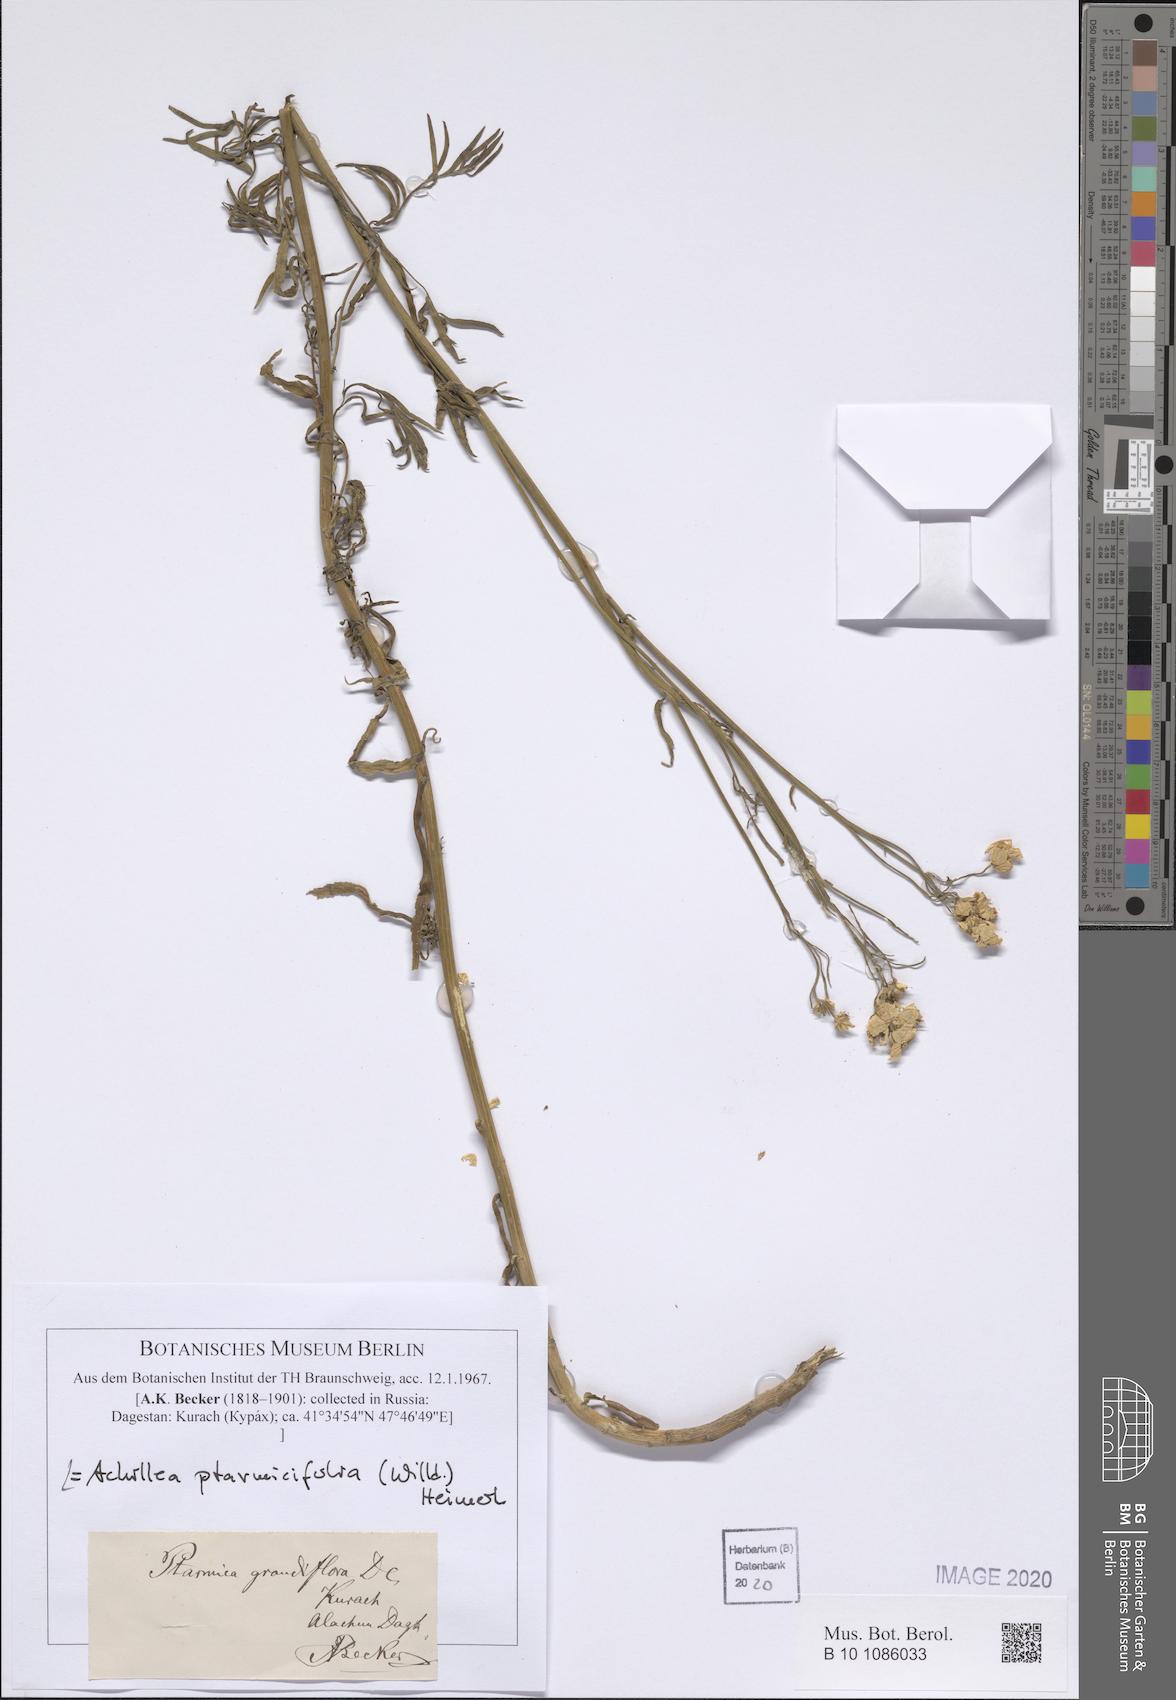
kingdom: Plantae
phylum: Tracheophyta
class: Magnoliopsida
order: Asterales
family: Asteraceae
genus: Achillea
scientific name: Achillea ptarmicifolia
